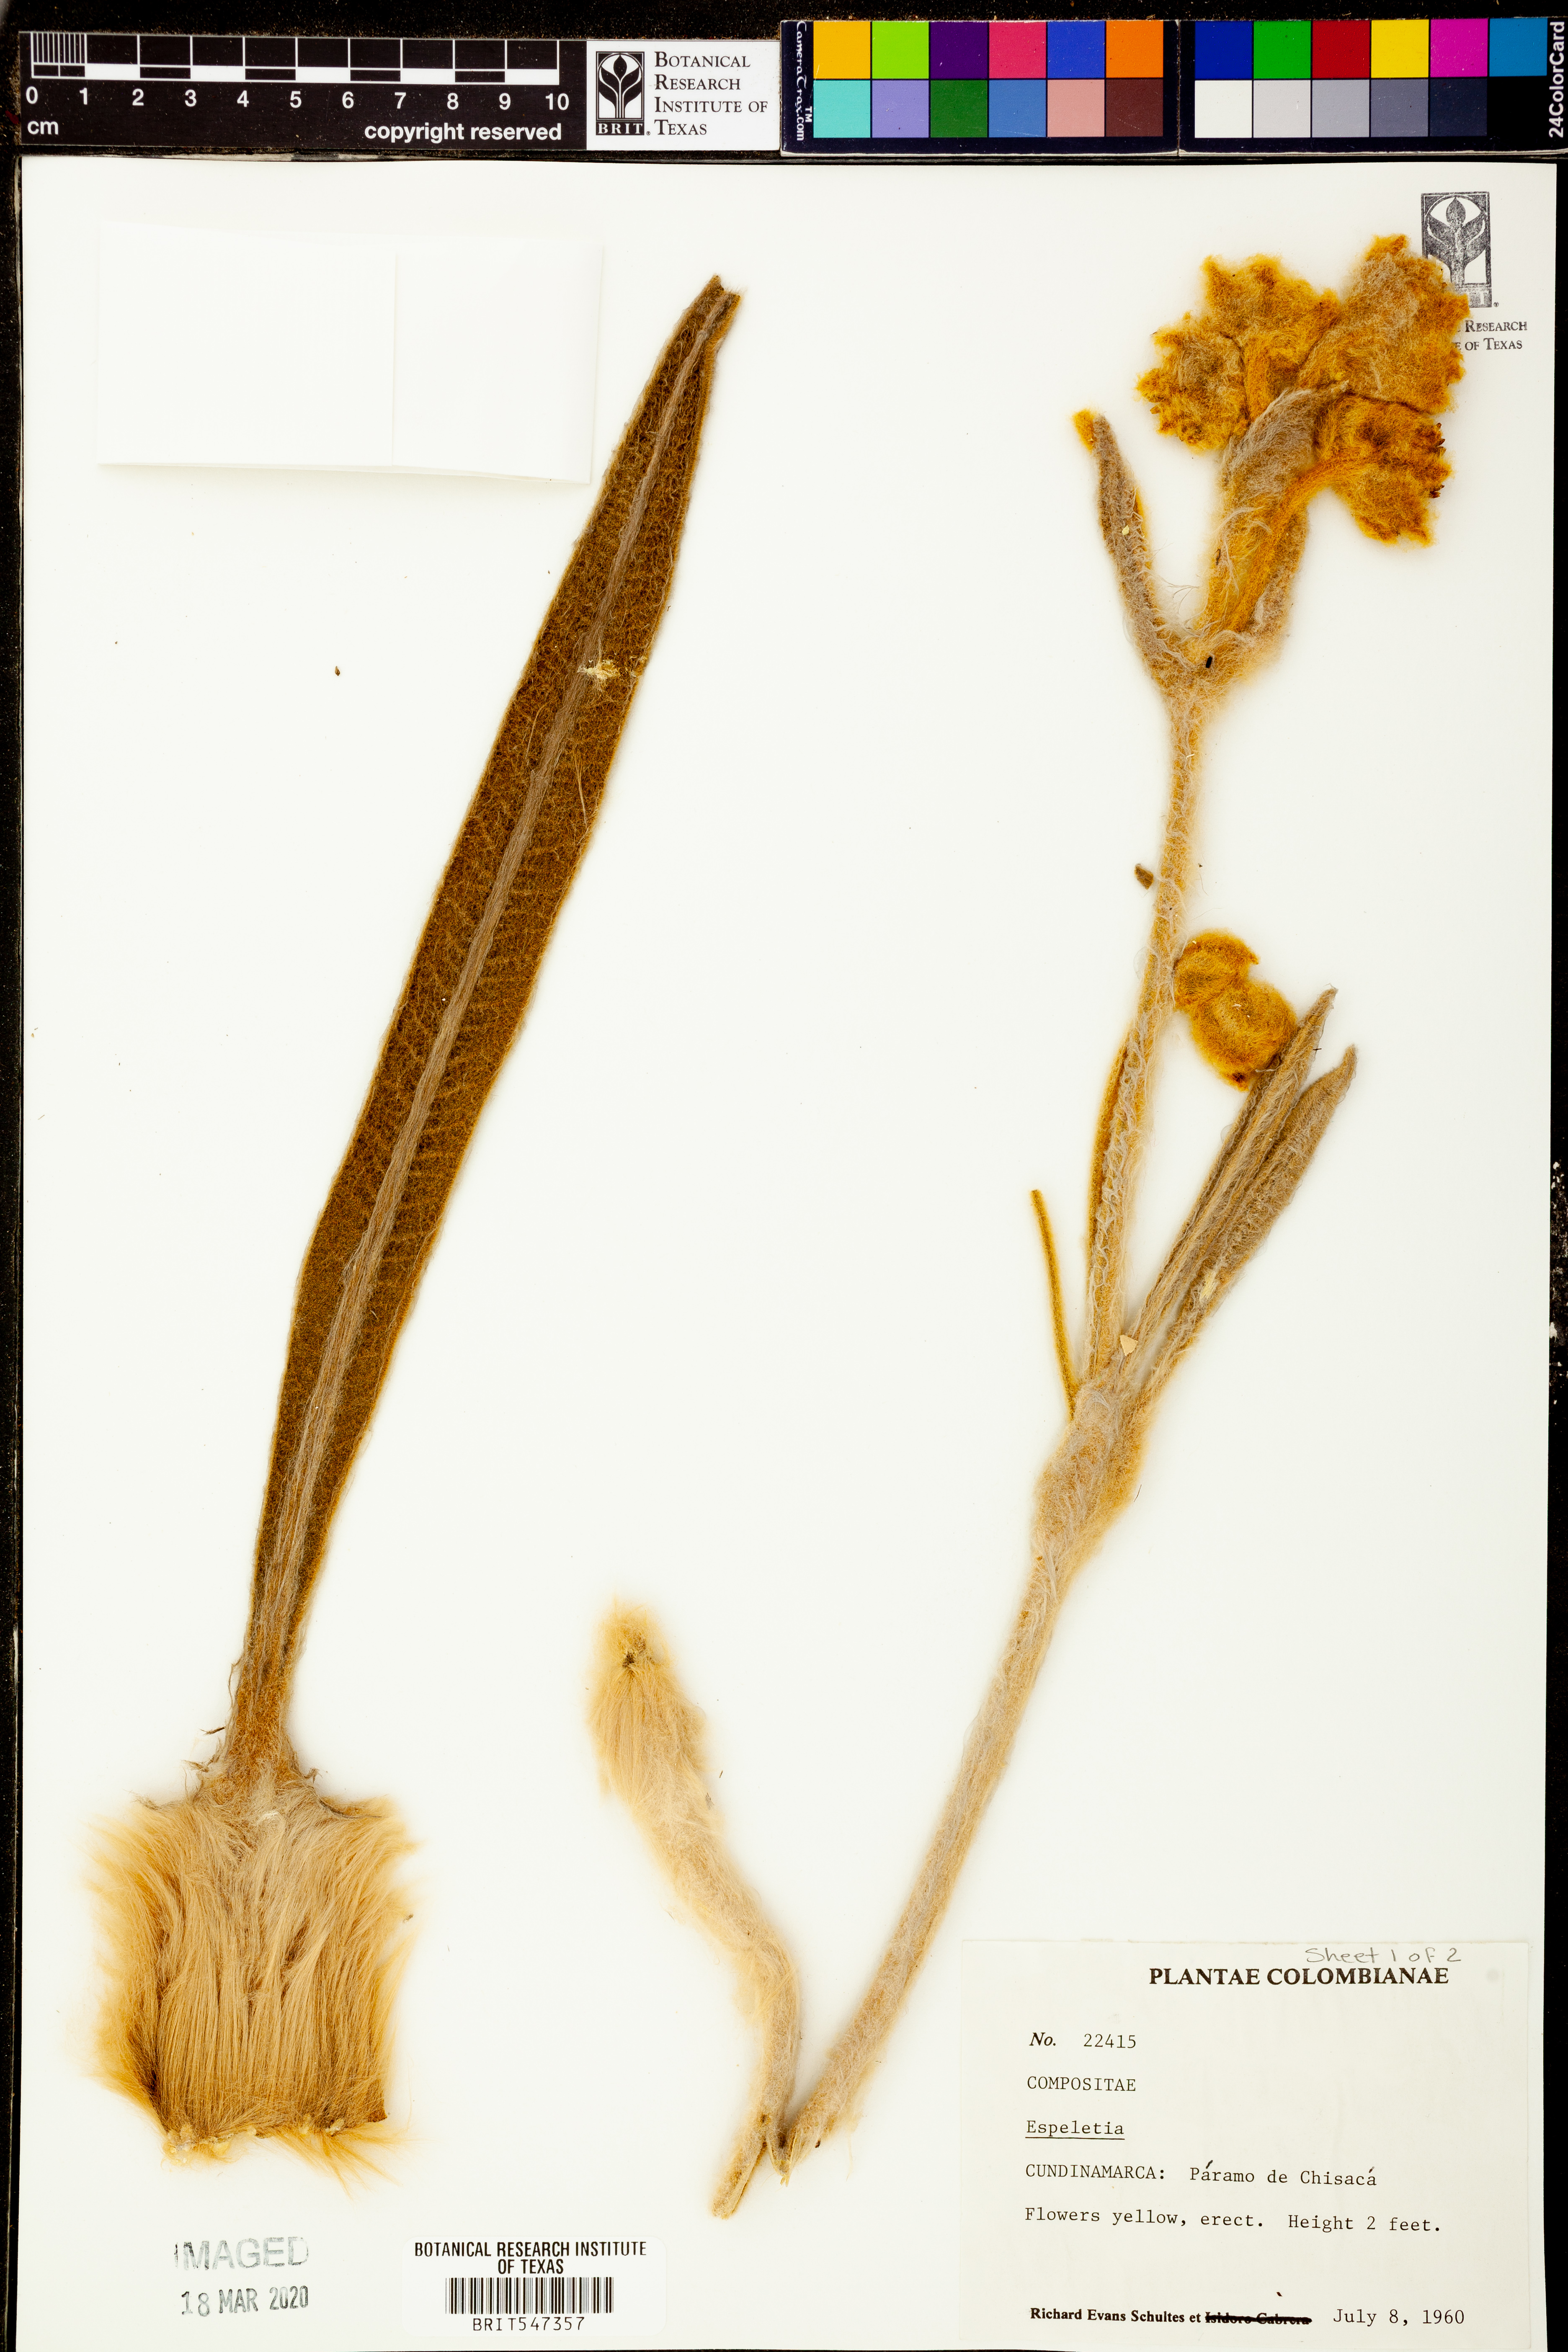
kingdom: Plantae
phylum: Tracheophyta
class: Magnoliopsida
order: Asterales
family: Asteraceae
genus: Espeletia
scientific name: Espeletia
